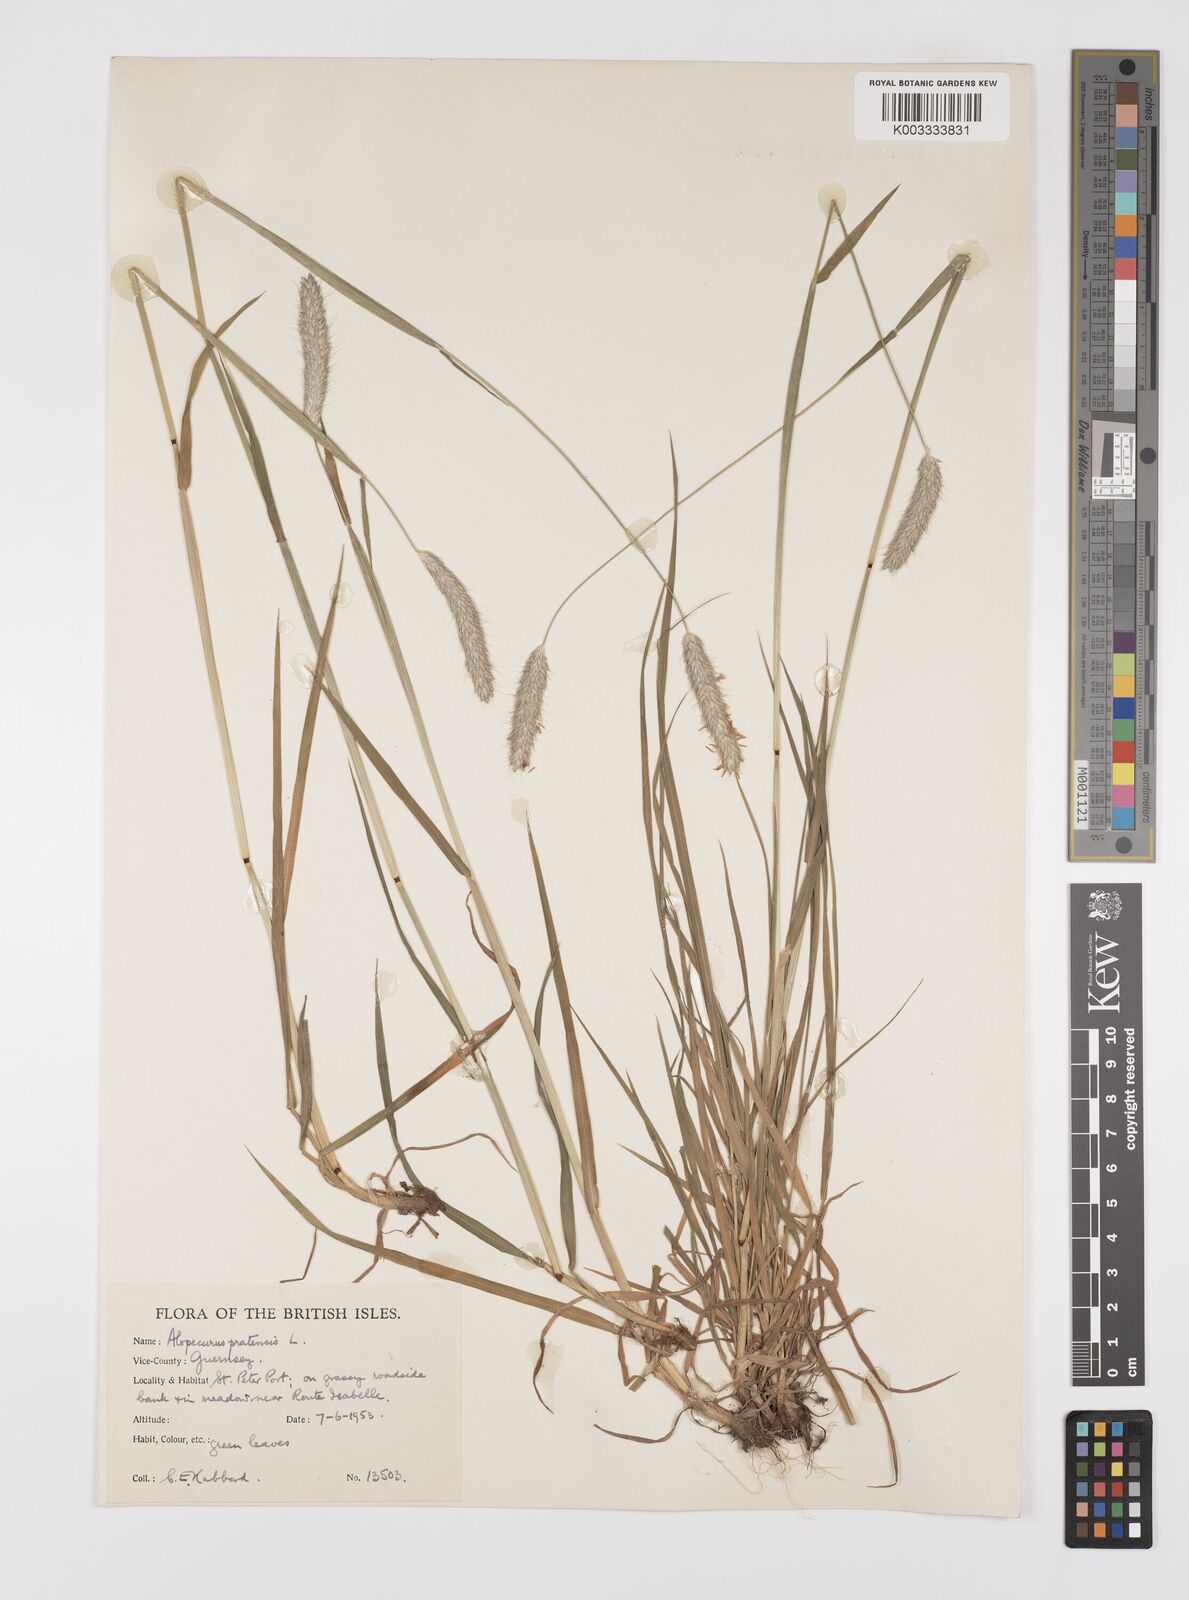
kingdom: Plantae
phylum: Tracheophyta
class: Liliopsida
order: Poales
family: Poaceae
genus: Alopecurus
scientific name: Alopecurus pratensis
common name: Meadow foxtail
